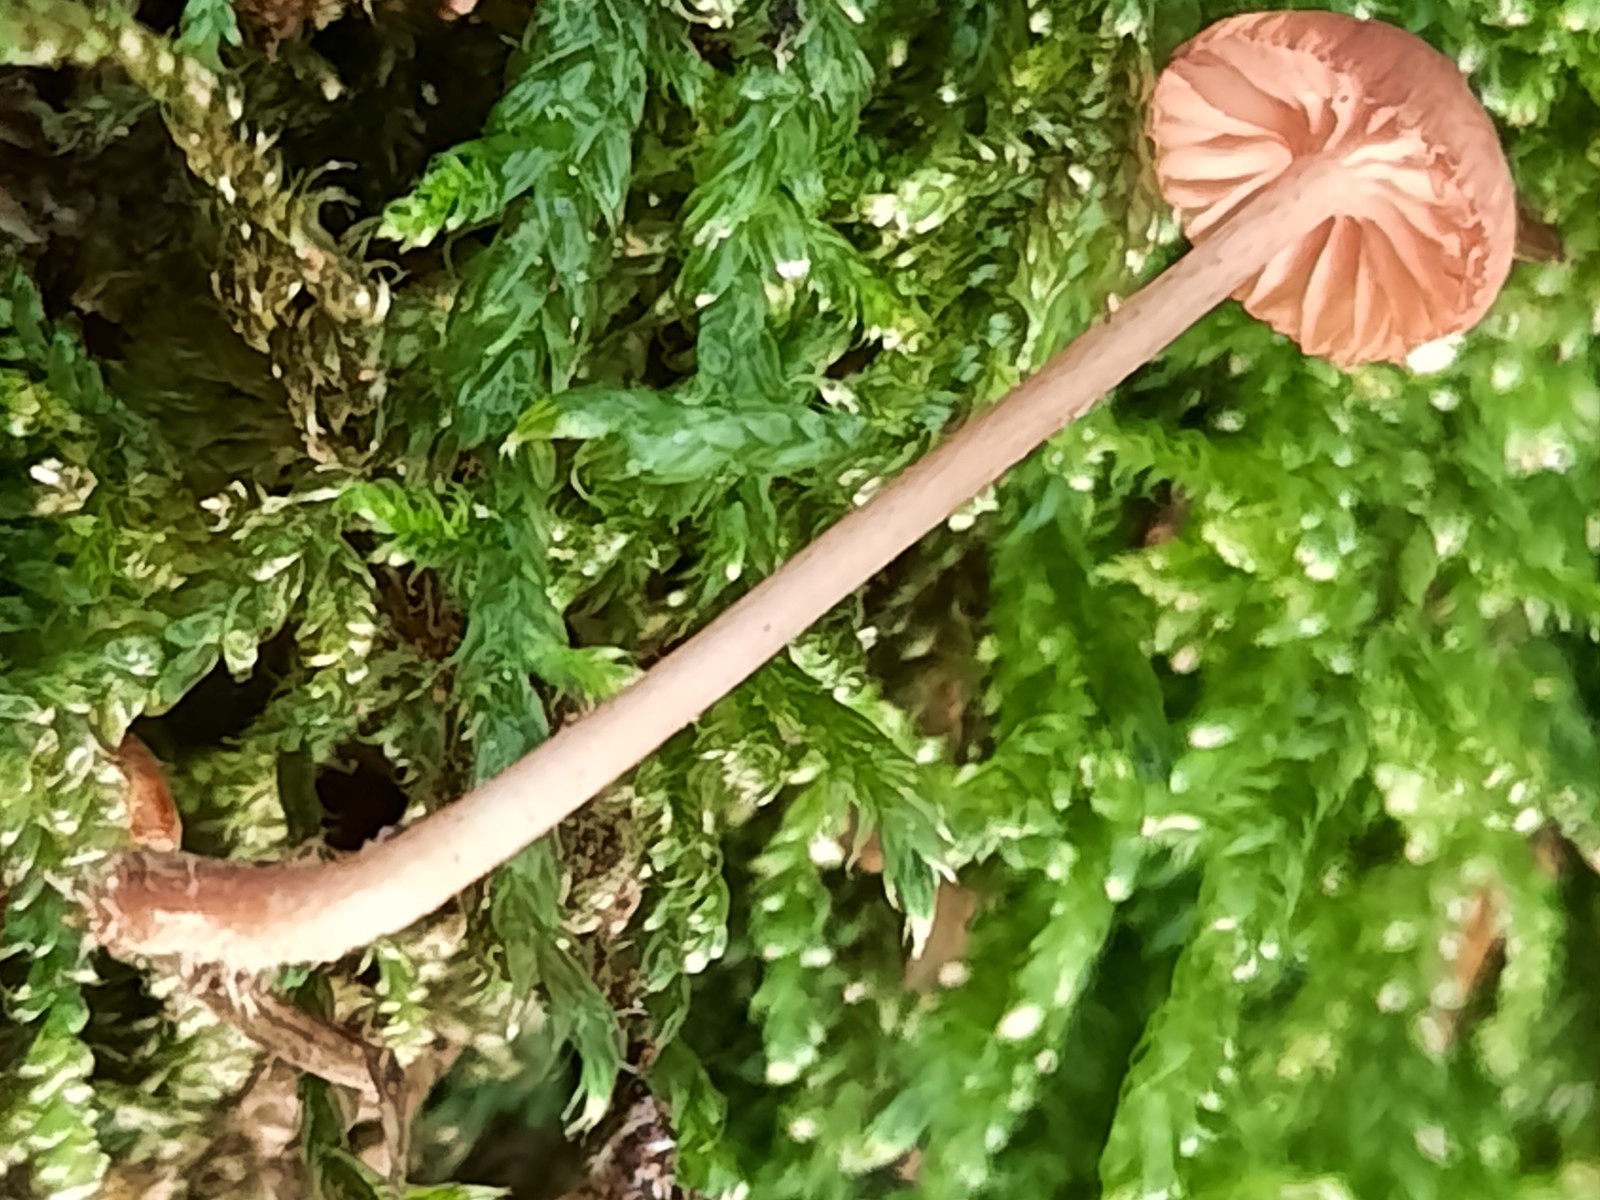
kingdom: Fungi
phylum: Basidiomycota
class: Agaricomycetes
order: Agaricales
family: Mycenaceae
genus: Mycena
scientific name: Mycena rosella
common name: rosenrød huesvamp
